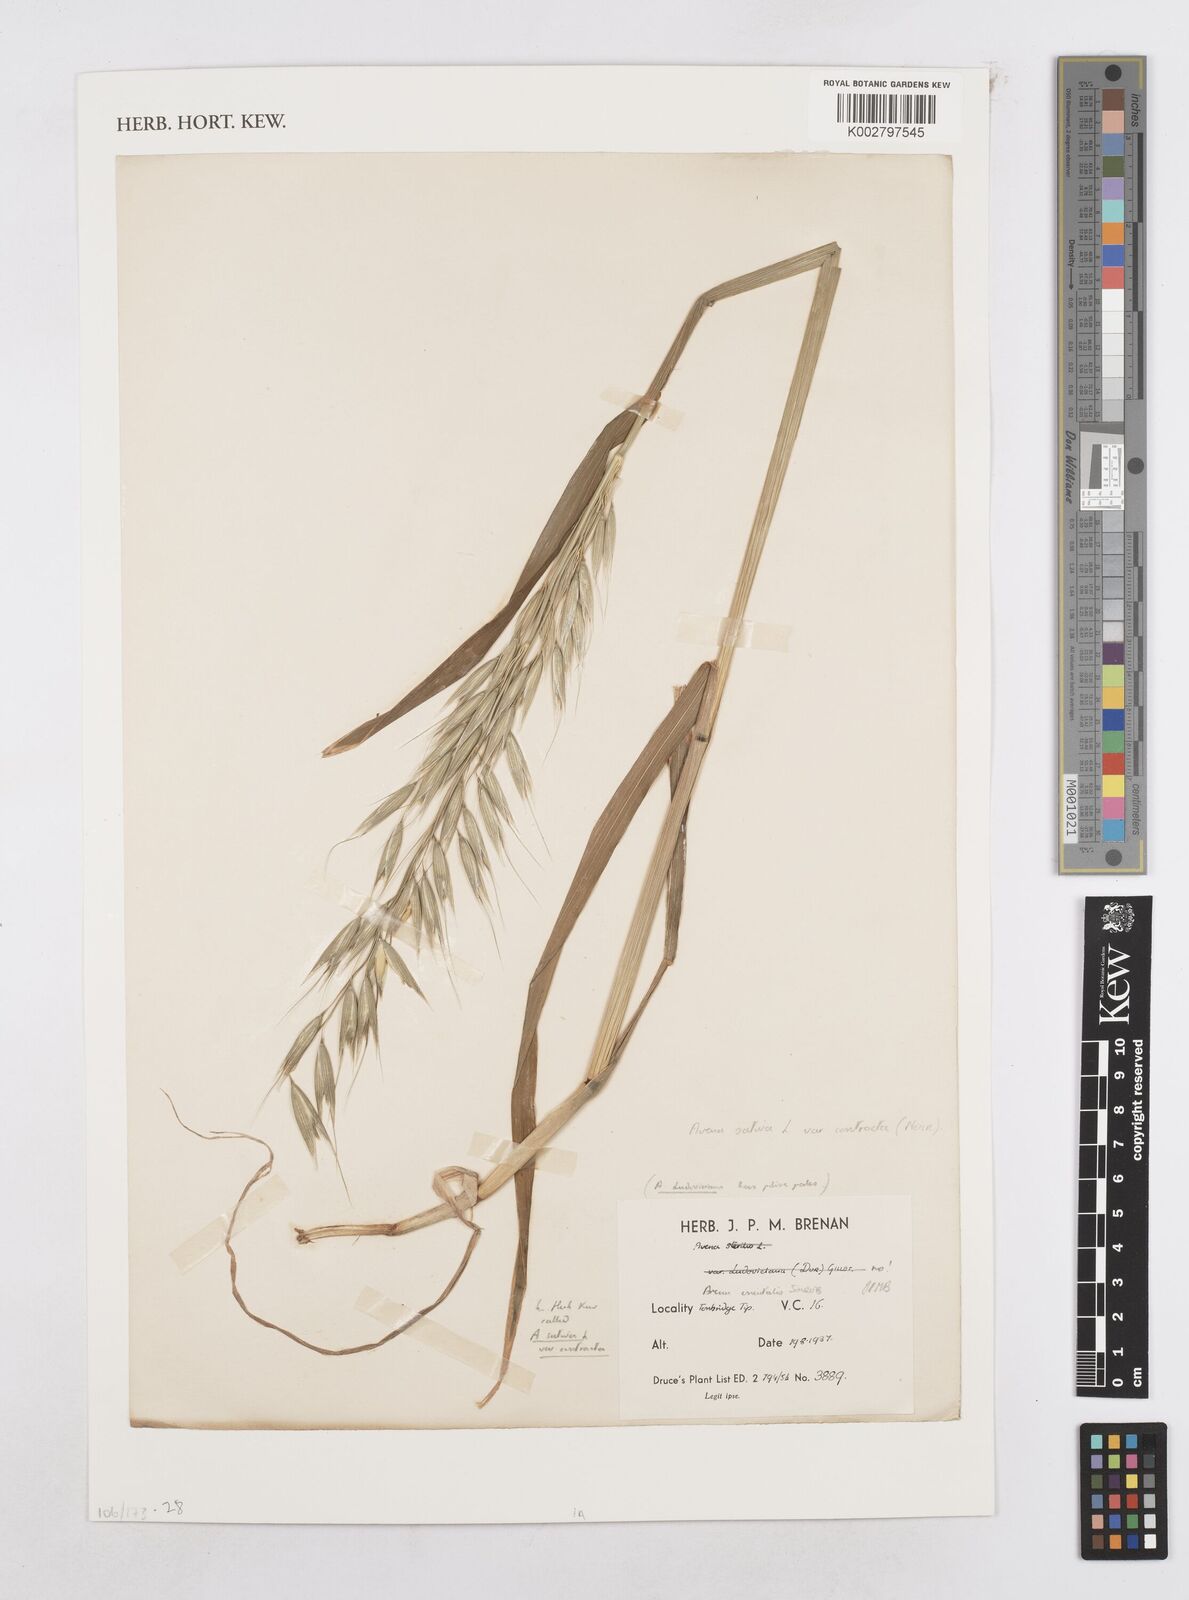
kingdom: Plantae
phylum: Tracheophyta
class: Liliopsida
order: Poales
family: Poaceae
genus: Avena
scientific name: Avena sativa
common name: Oat
